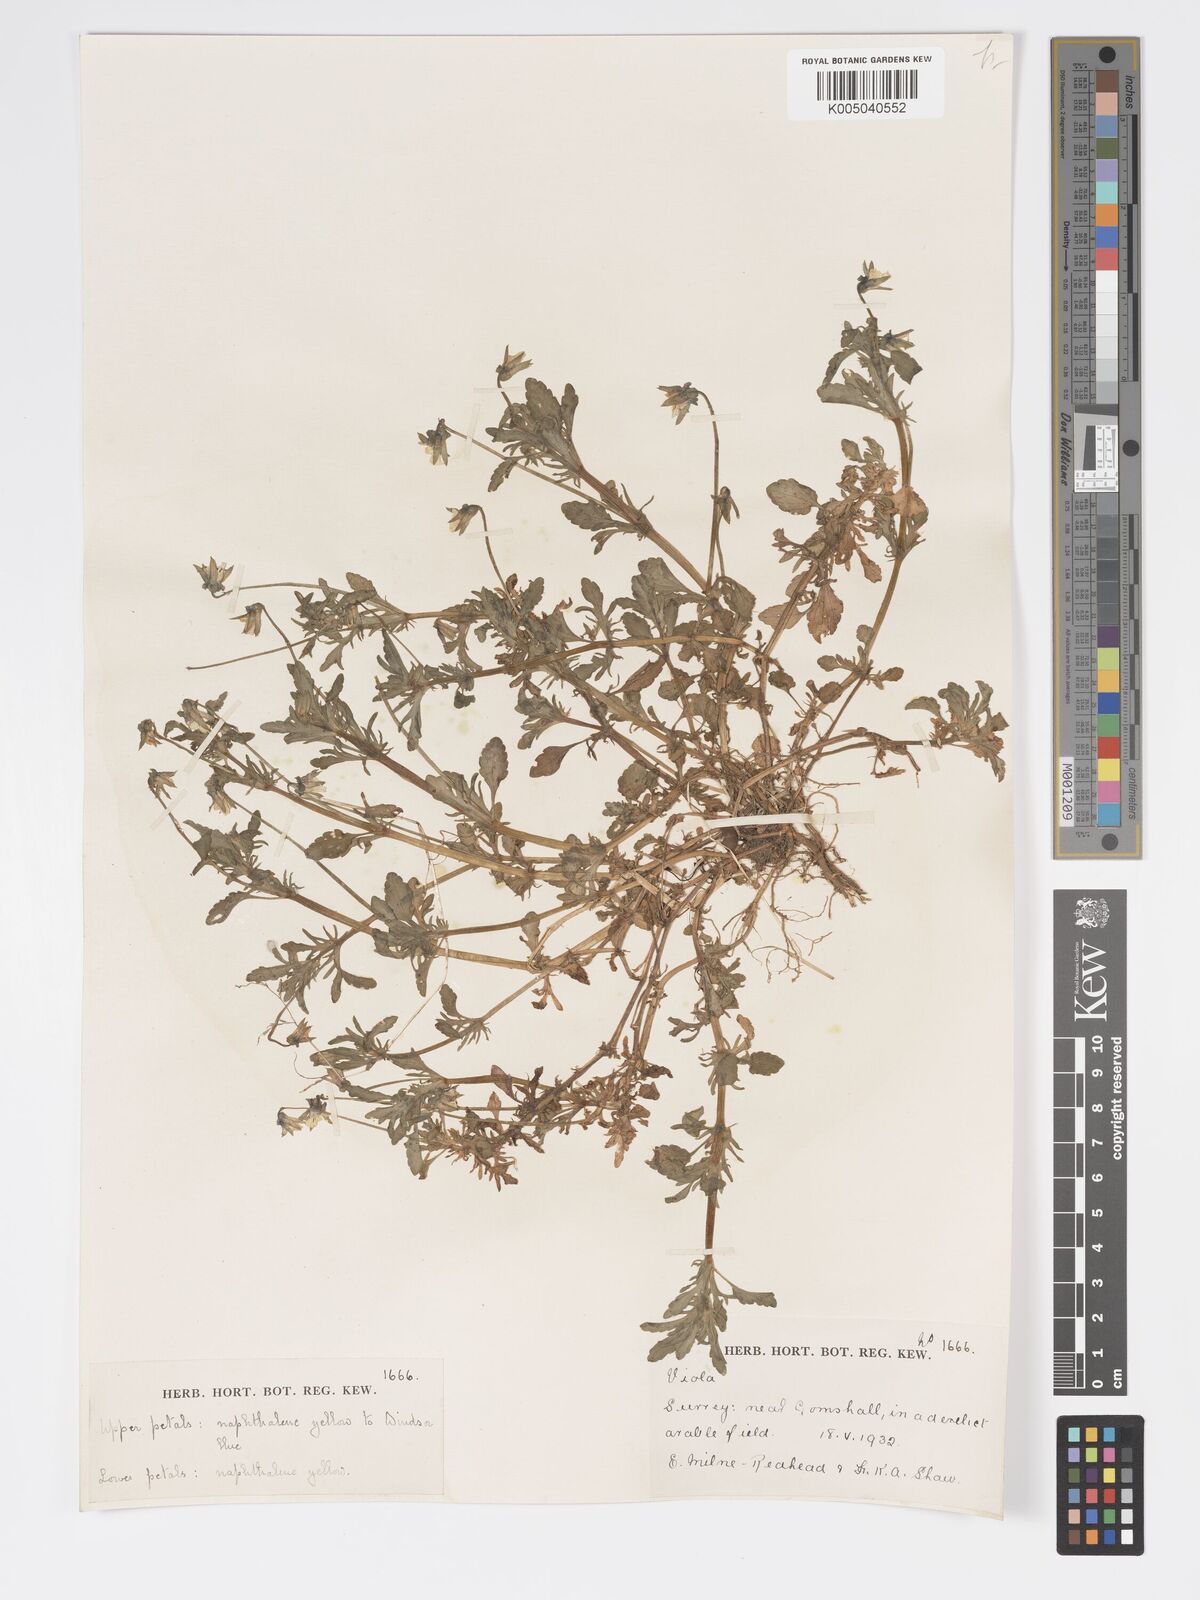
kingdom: Plantae
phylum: Tracheophyta
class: Magnoliopsida
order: Malpighiales
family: Violaceae
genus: Viola
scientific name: Viola
